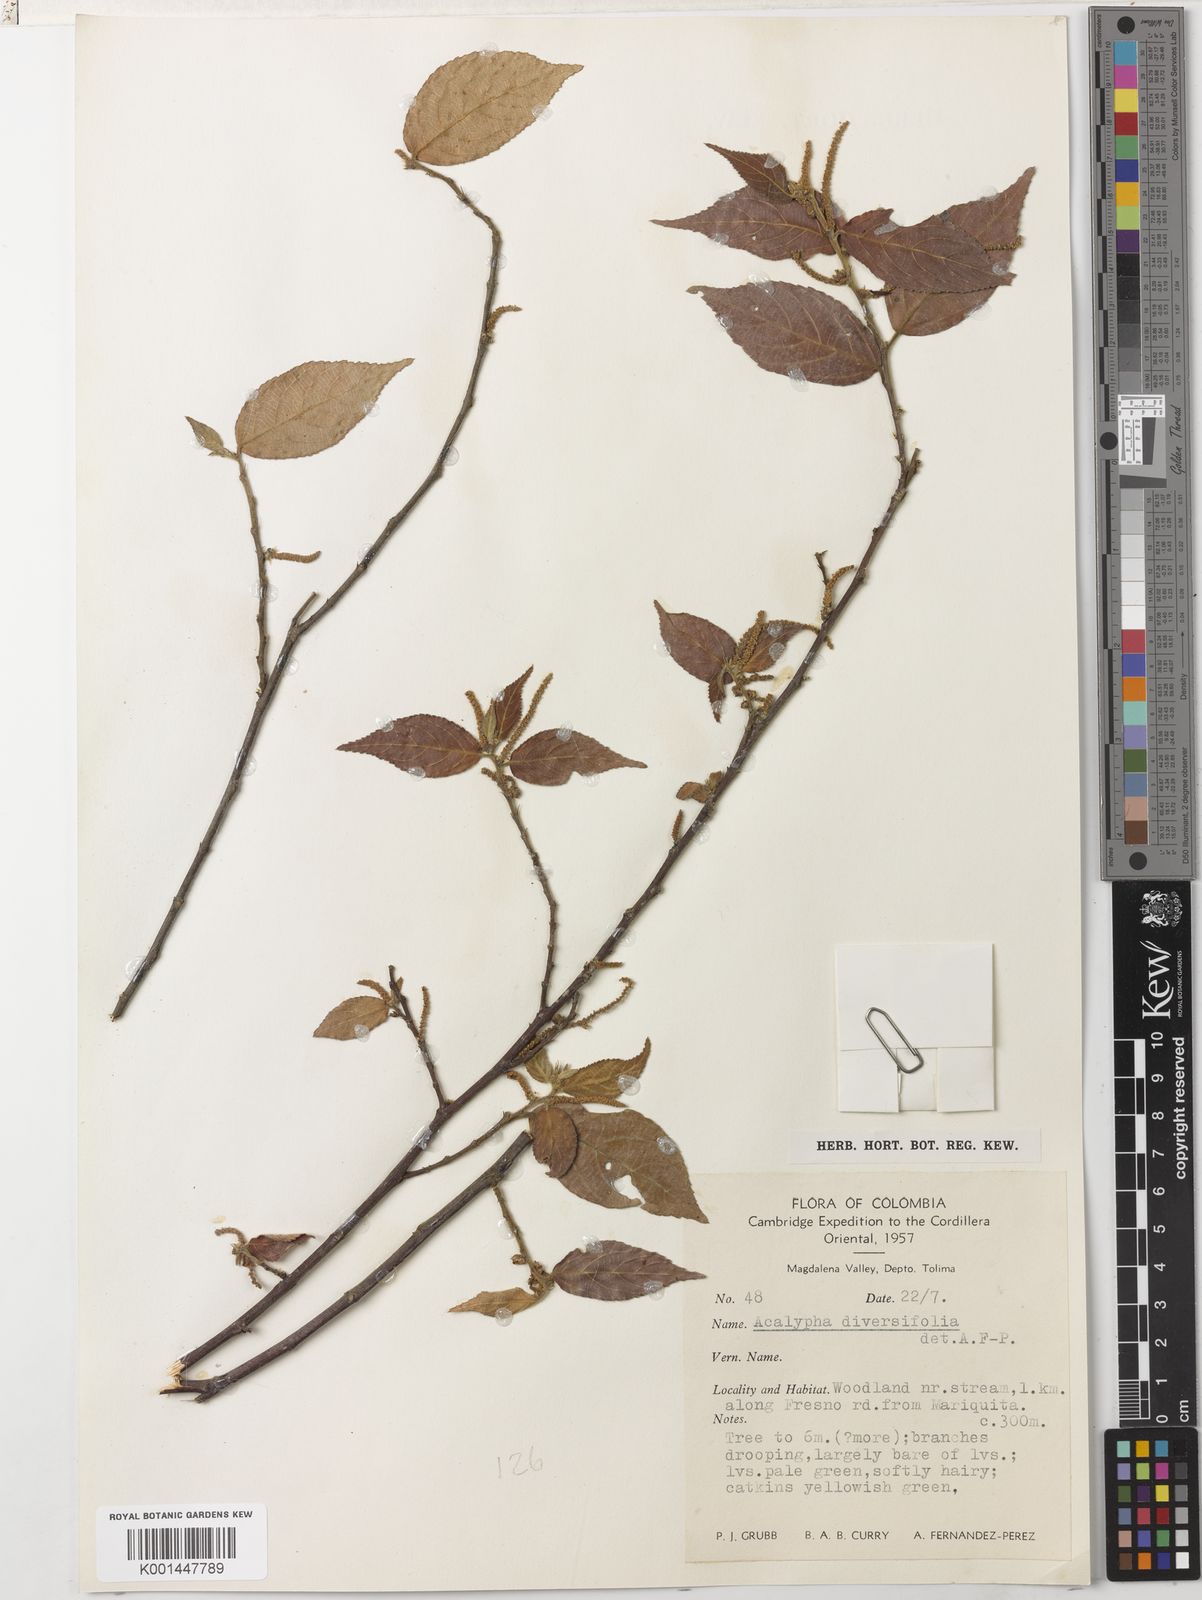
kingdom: Plantae
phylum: Tracheophyta
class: Magnoliopsida
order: Malpighiales
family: Euphorbiaceae
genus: Acalypha
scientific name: Acalypha diversifolia
